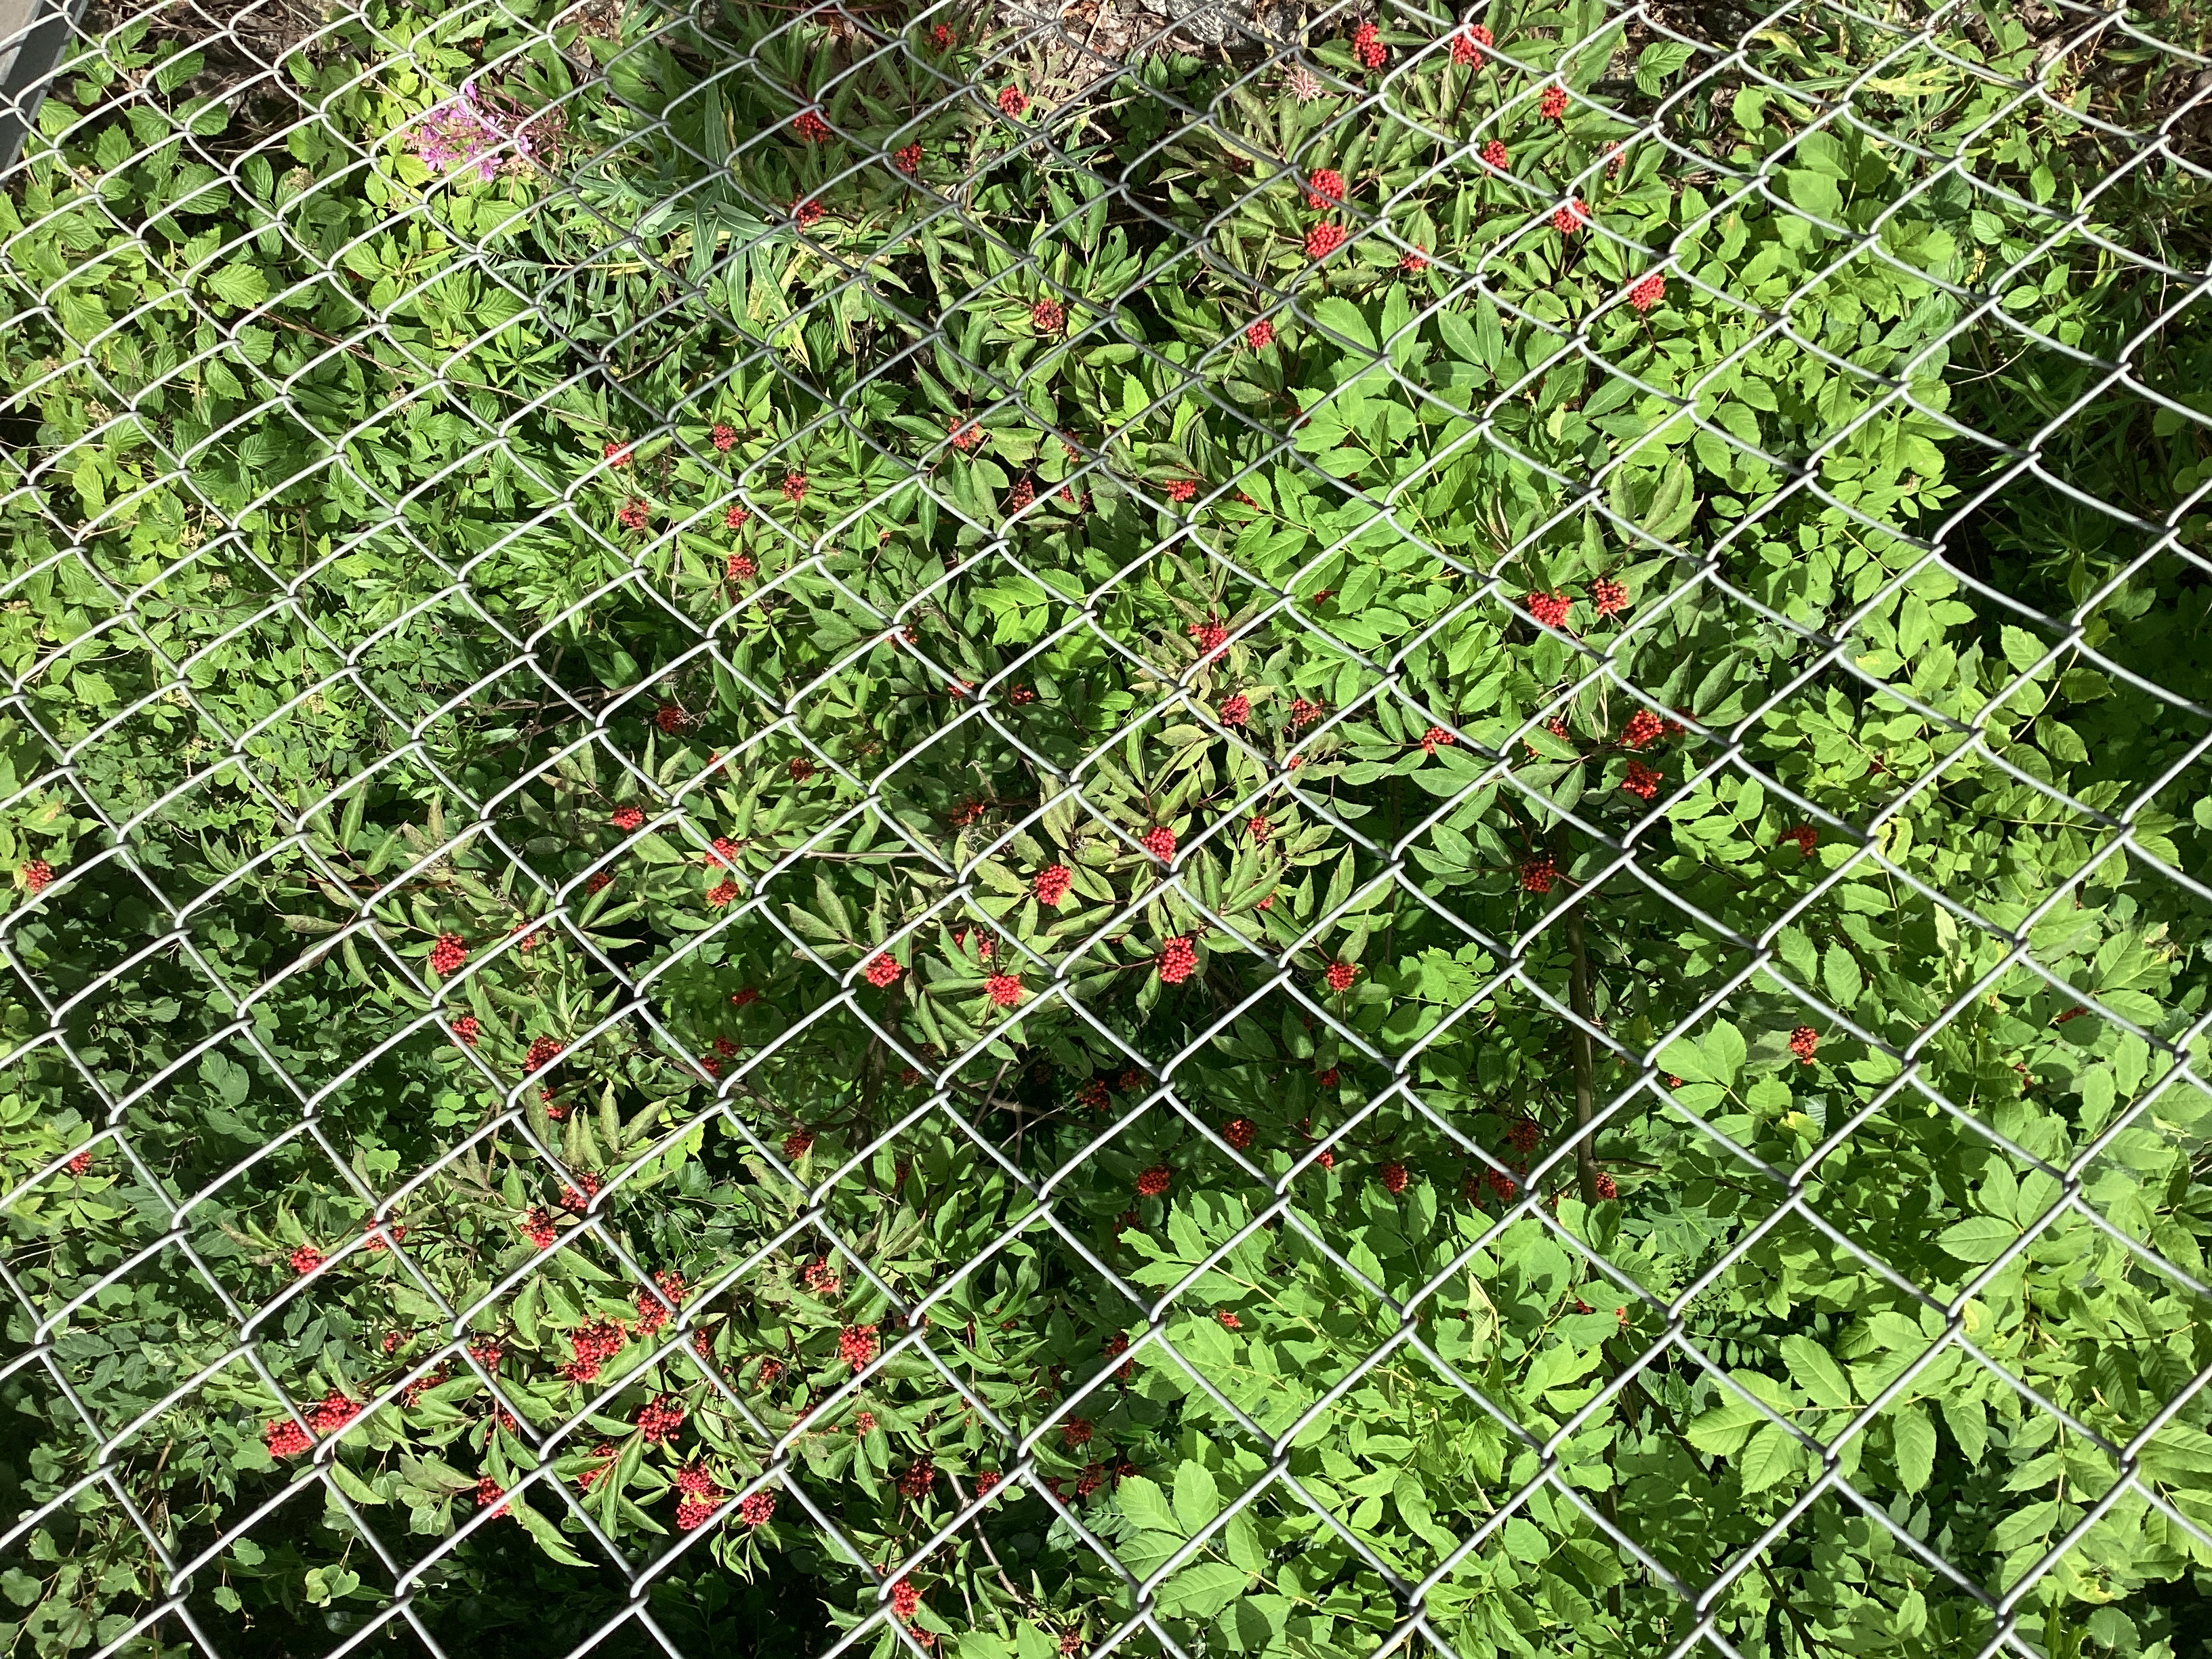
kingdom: Plantae
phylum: Tracheophyta
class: Magnoliopsida
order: Dipsacales
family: Viburnaceae
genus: Sambucus
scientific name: Sambucus racemosa
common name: rødhyll
